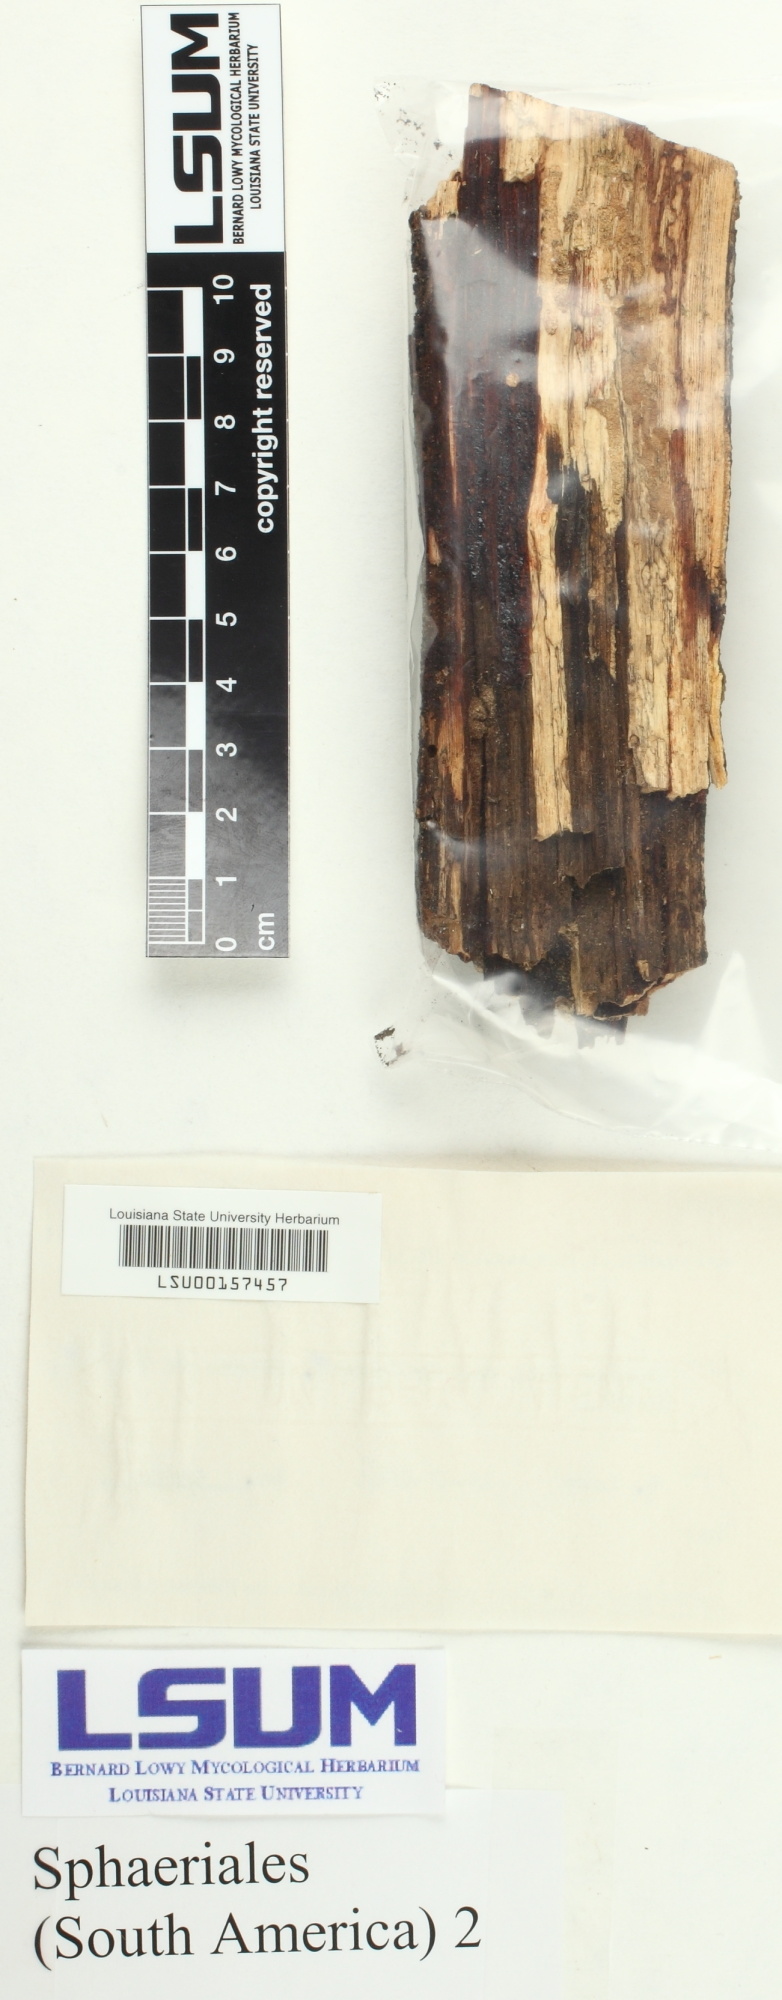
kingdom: Fungi
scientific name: Fungi
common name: Fungi
